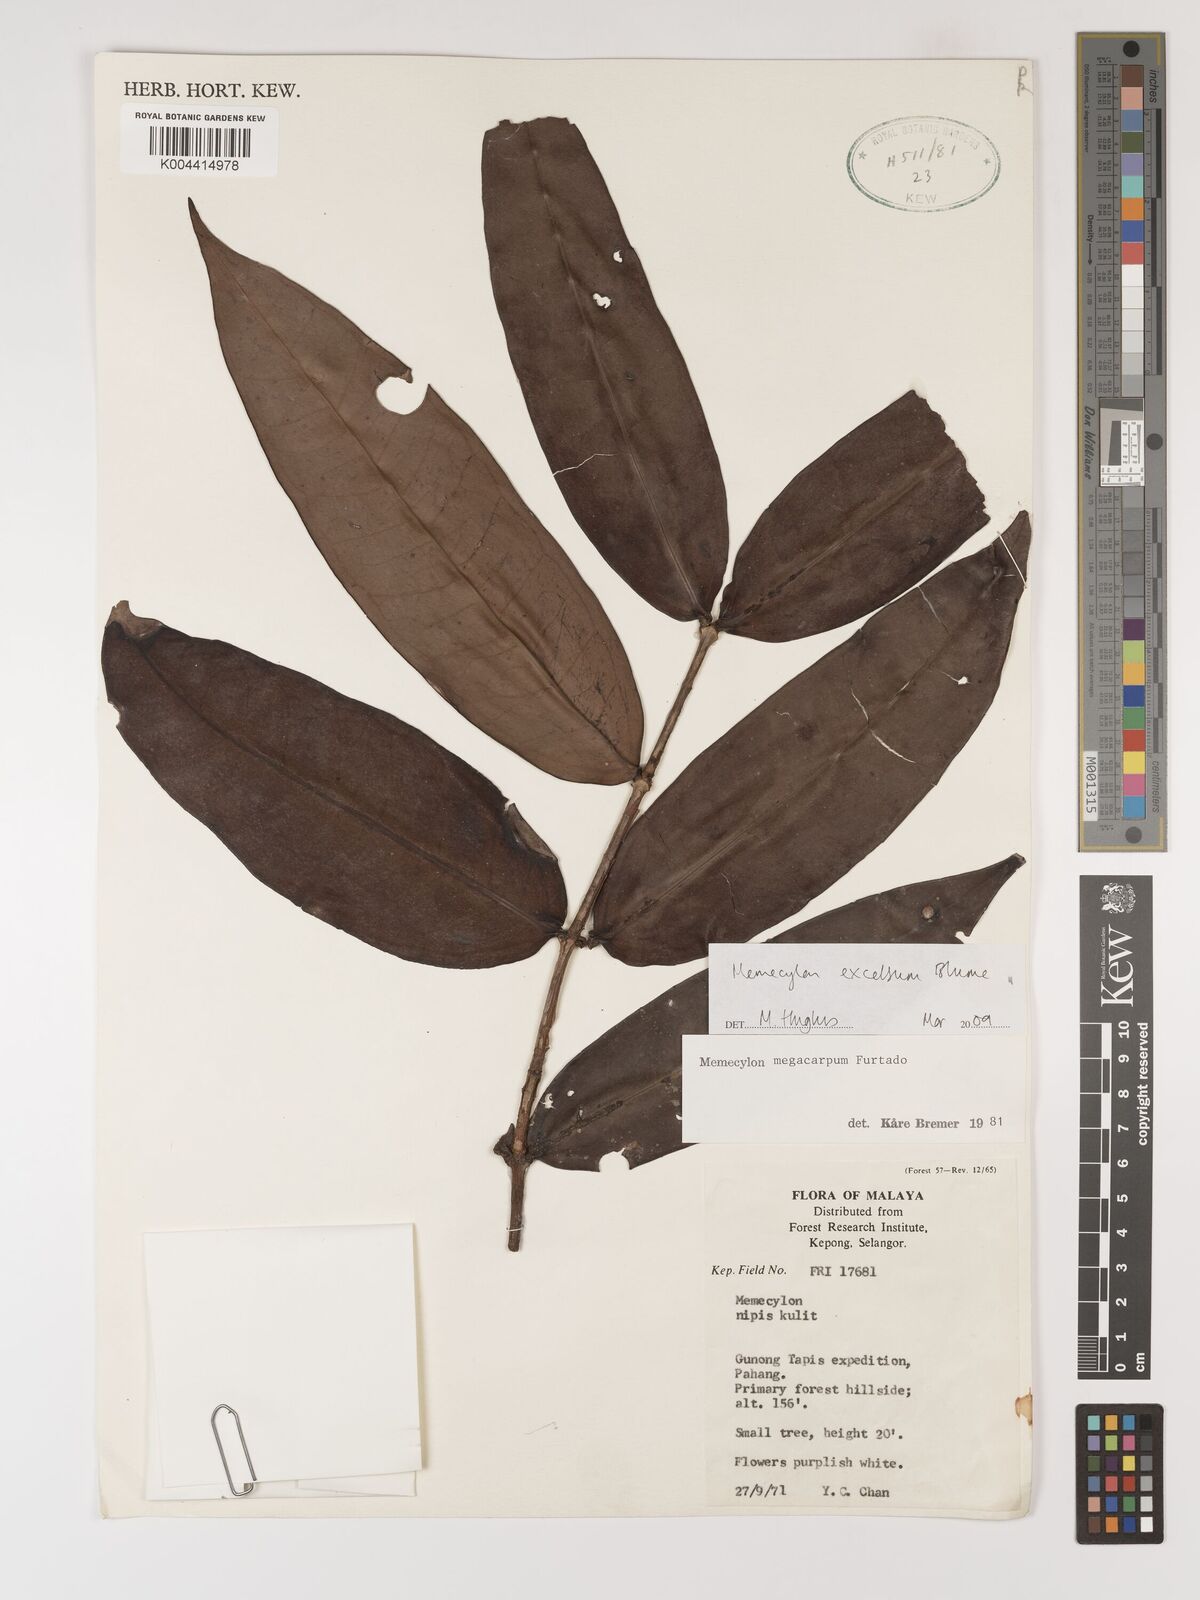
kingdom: Plantae
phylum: Tracheophyta
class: Magnoliopsida
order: Myrtales
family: Melastomataceae
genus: Memecylon
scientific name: Memecylon excelsum
